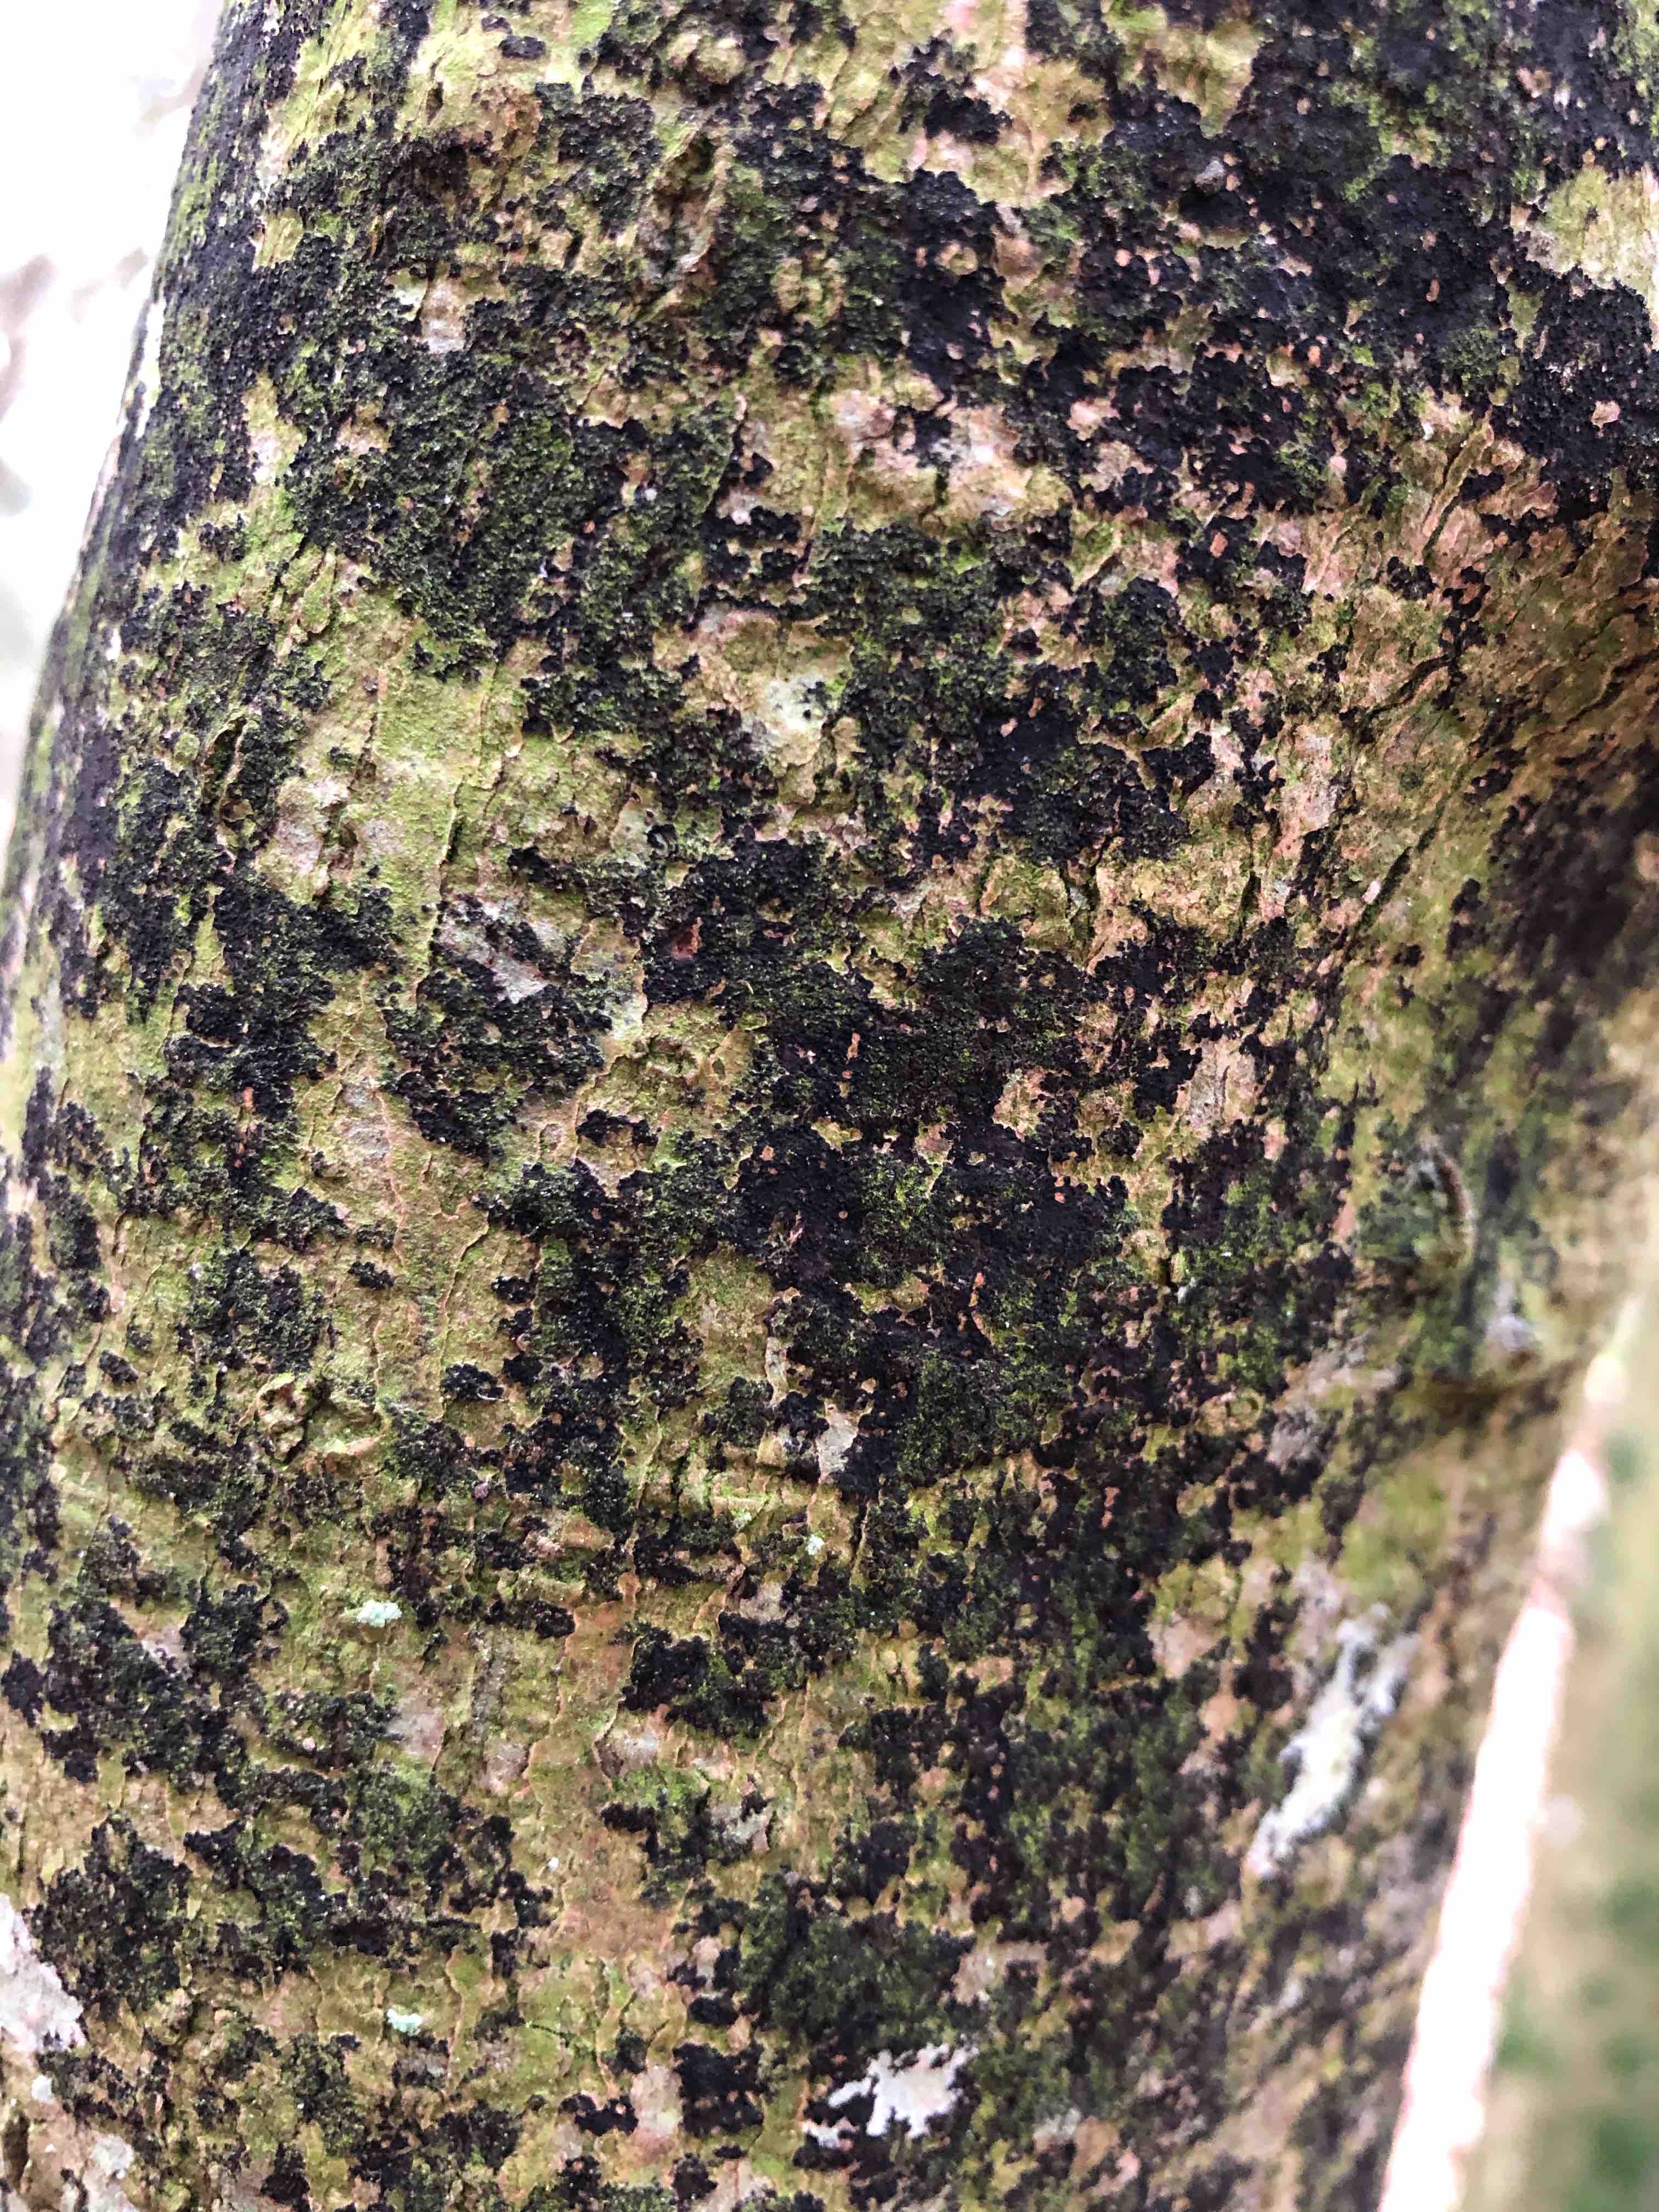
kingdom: Fungi
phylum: Ascomycota
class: Leotiomycetes
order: Rhytismatales
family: Ascodichaenaceae
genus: Ascodichaena
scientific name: Ascodichaena rugosa
